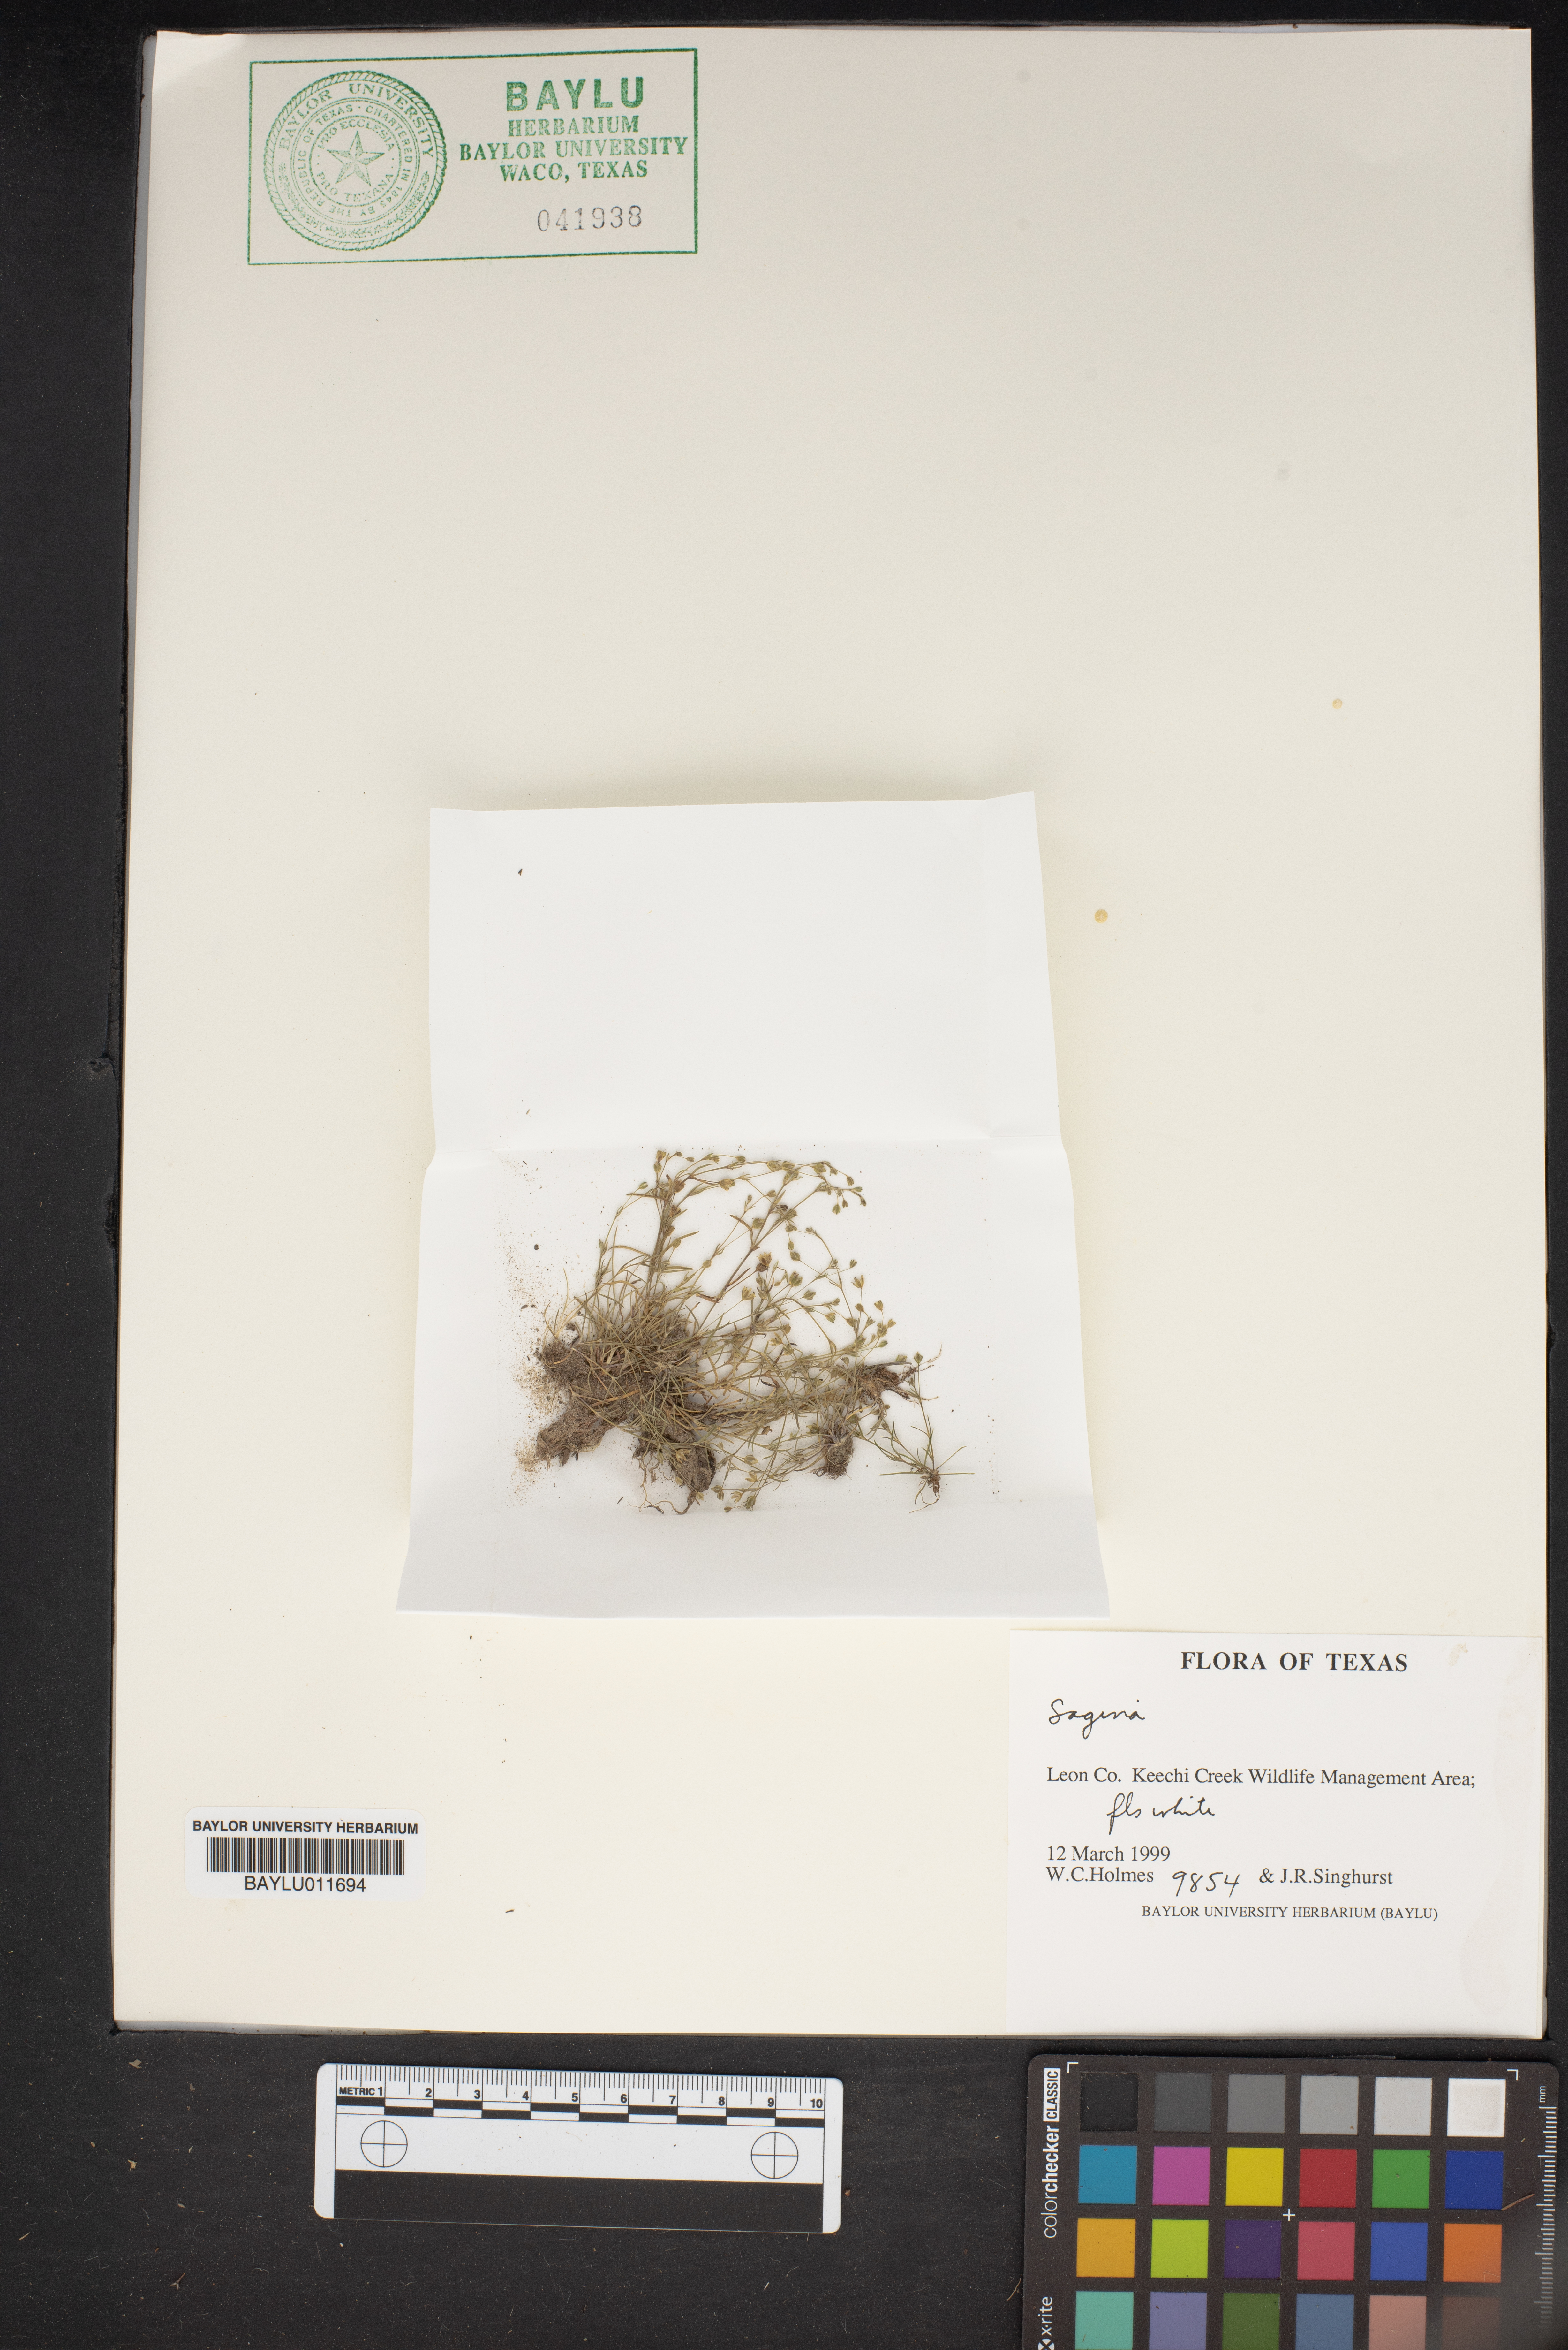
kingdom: Plantae
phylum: Tracheophyta
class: Magnoliopsida
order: Caryophyllales
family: Caryophyllaceae
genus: Sagina
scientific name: Sagina
